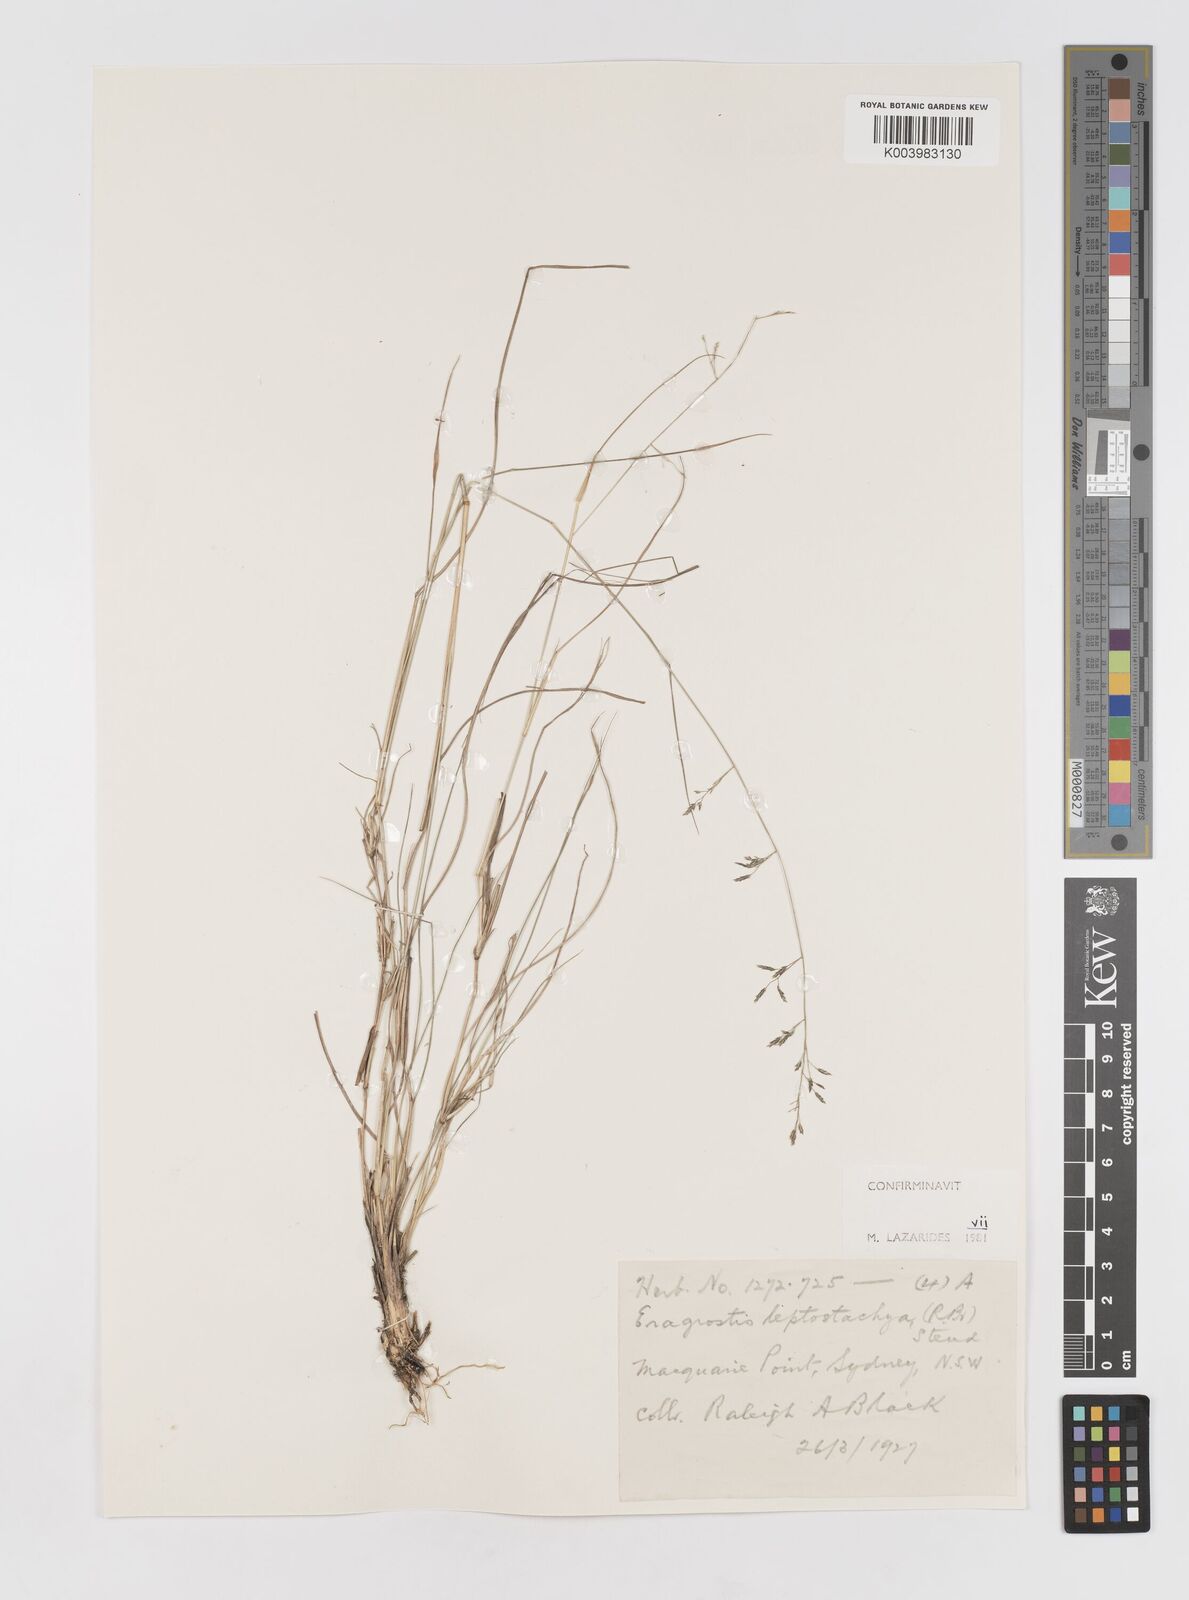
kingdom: Plantae
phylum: Tracheophyta
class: Liliopsida
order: Poales
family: Poaceae
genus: Eragrostis
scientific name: Eragrostis leptostachya
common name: Australian lovegrass
